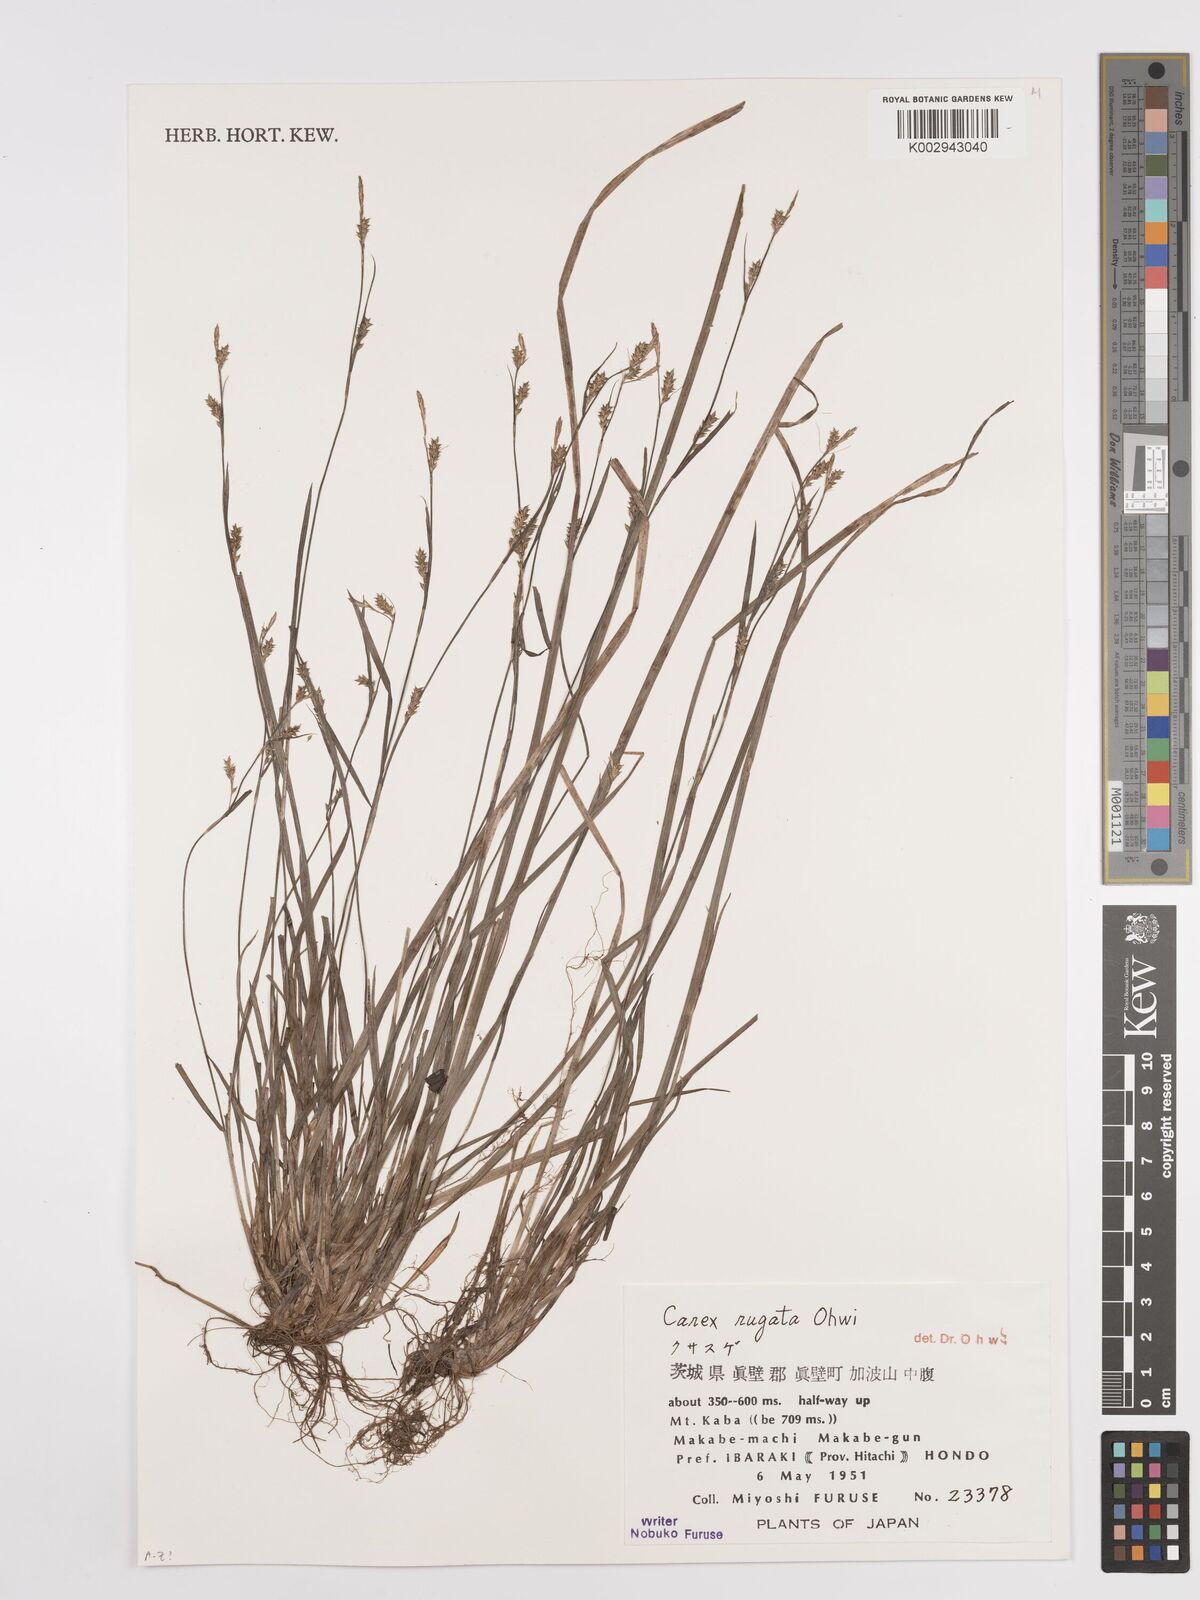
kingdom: Plantae
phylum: Tracheophyta
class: Liliopsida
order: Poales
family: Cyperaceae
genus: Carex
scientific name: Carex rugata
